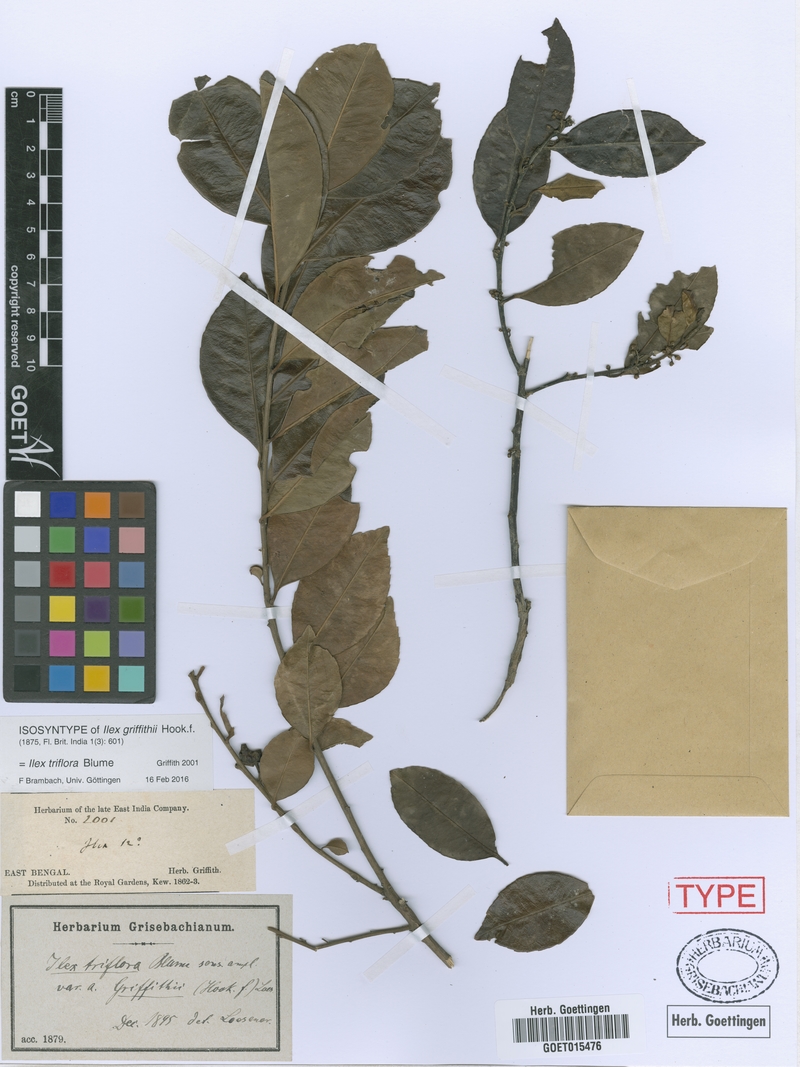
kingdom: Plantae
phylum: Tracheophyta
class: Magnoliopsida
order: Aquifoliales
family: Aquifoliaceae
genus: Ilex
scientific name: Ilex triflora
